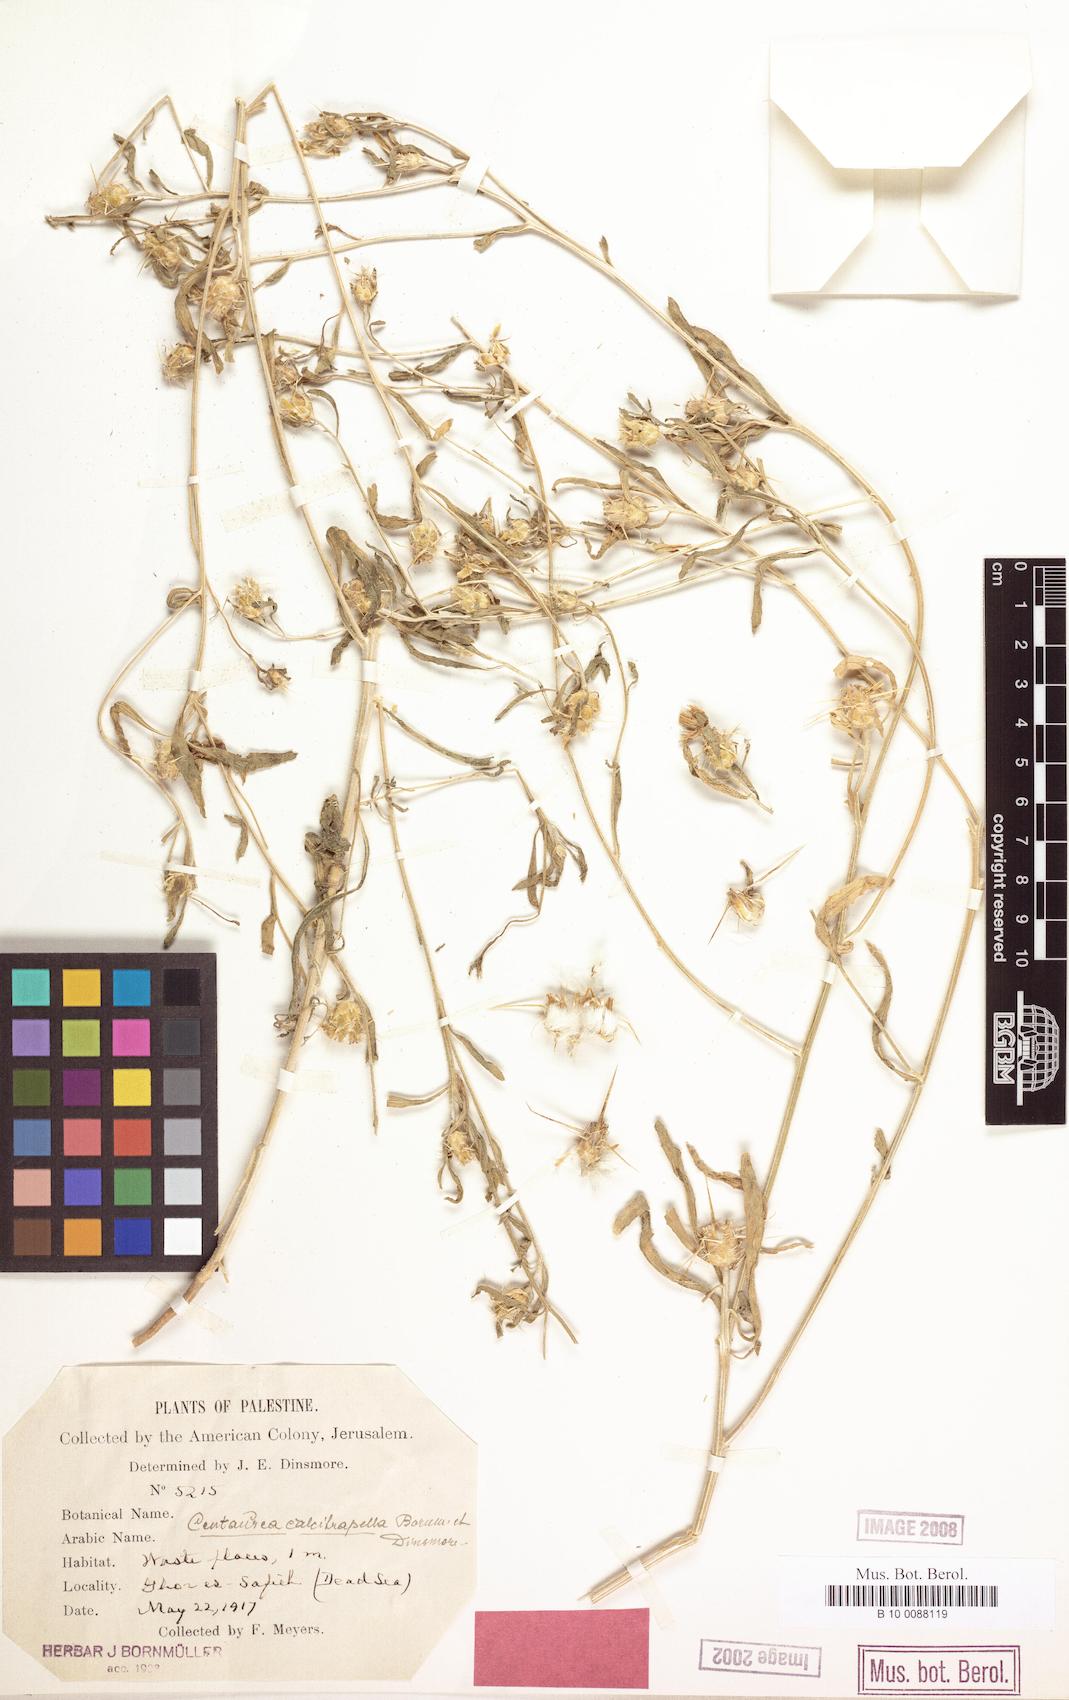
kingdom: Plantae
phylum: Tracheophyta
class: Magnoliopsida
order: Asterales
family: Asteraceae
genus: Centaurea
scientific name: Centaurea pallescens
